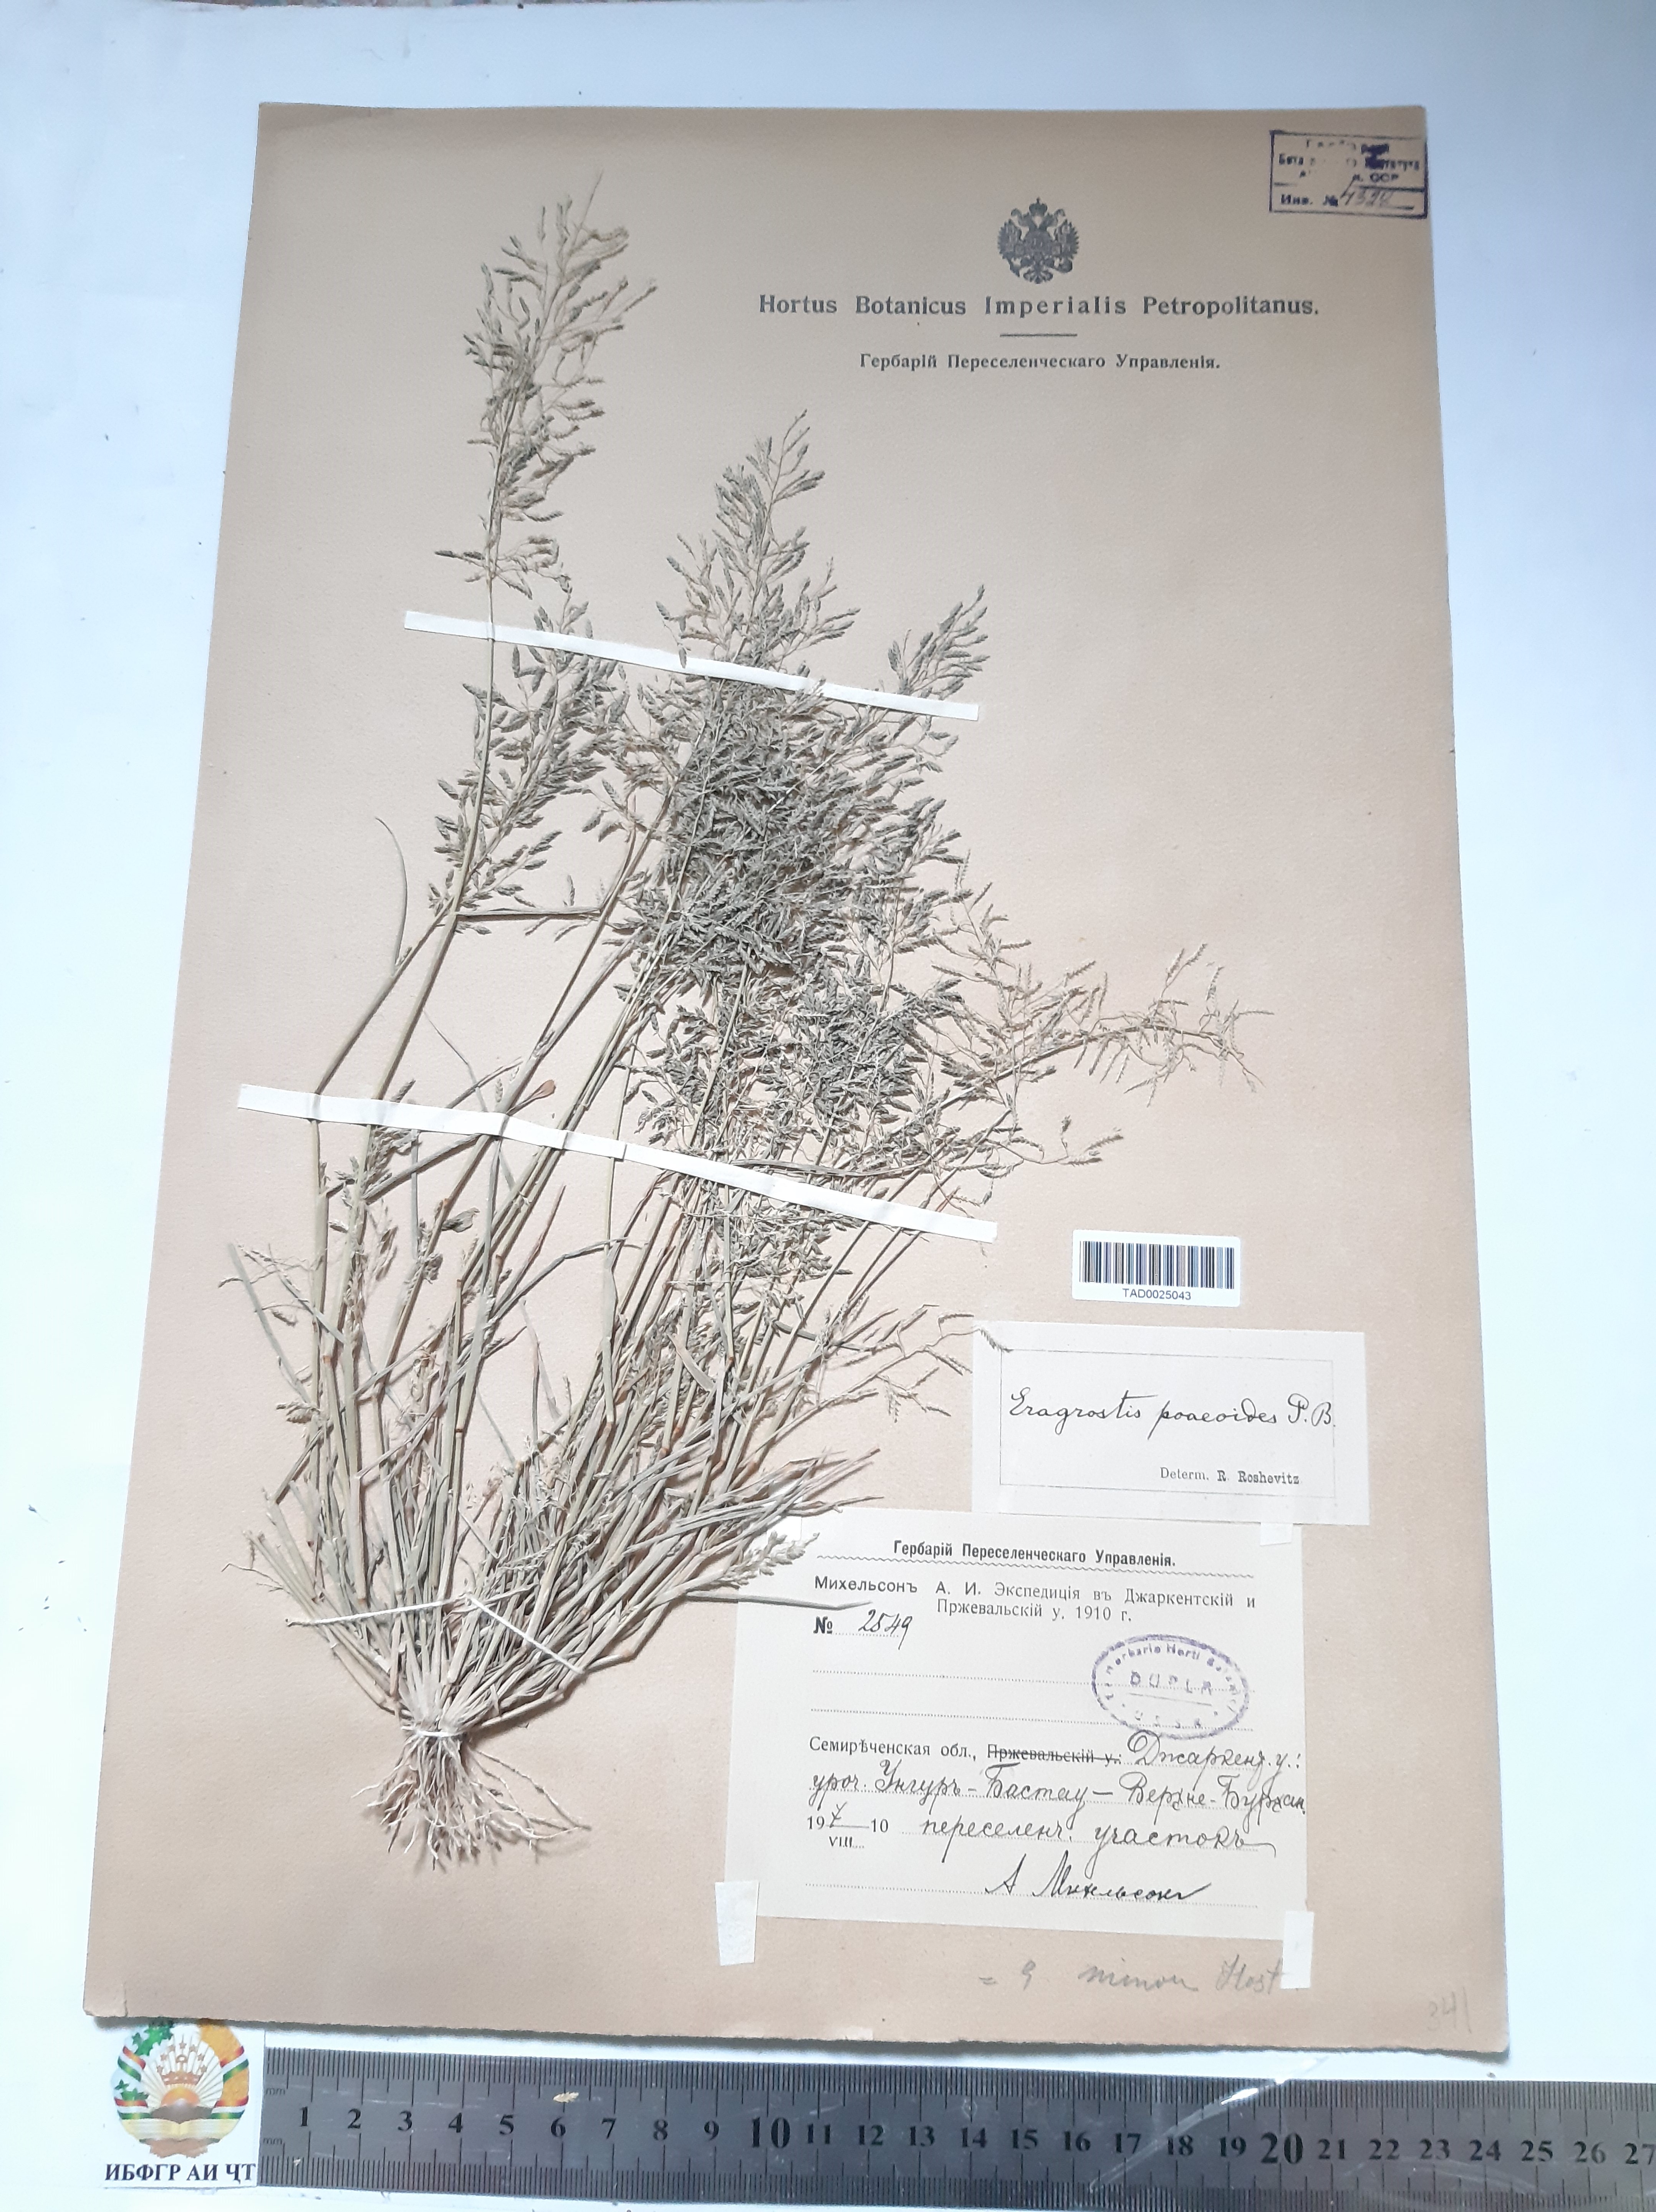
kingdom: Plantae
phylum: Tracheophyta
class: Liliopsida
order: Poales
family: Poaceae
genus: Eragrostis
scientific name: Eragrostis minor
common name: Small love-grass
